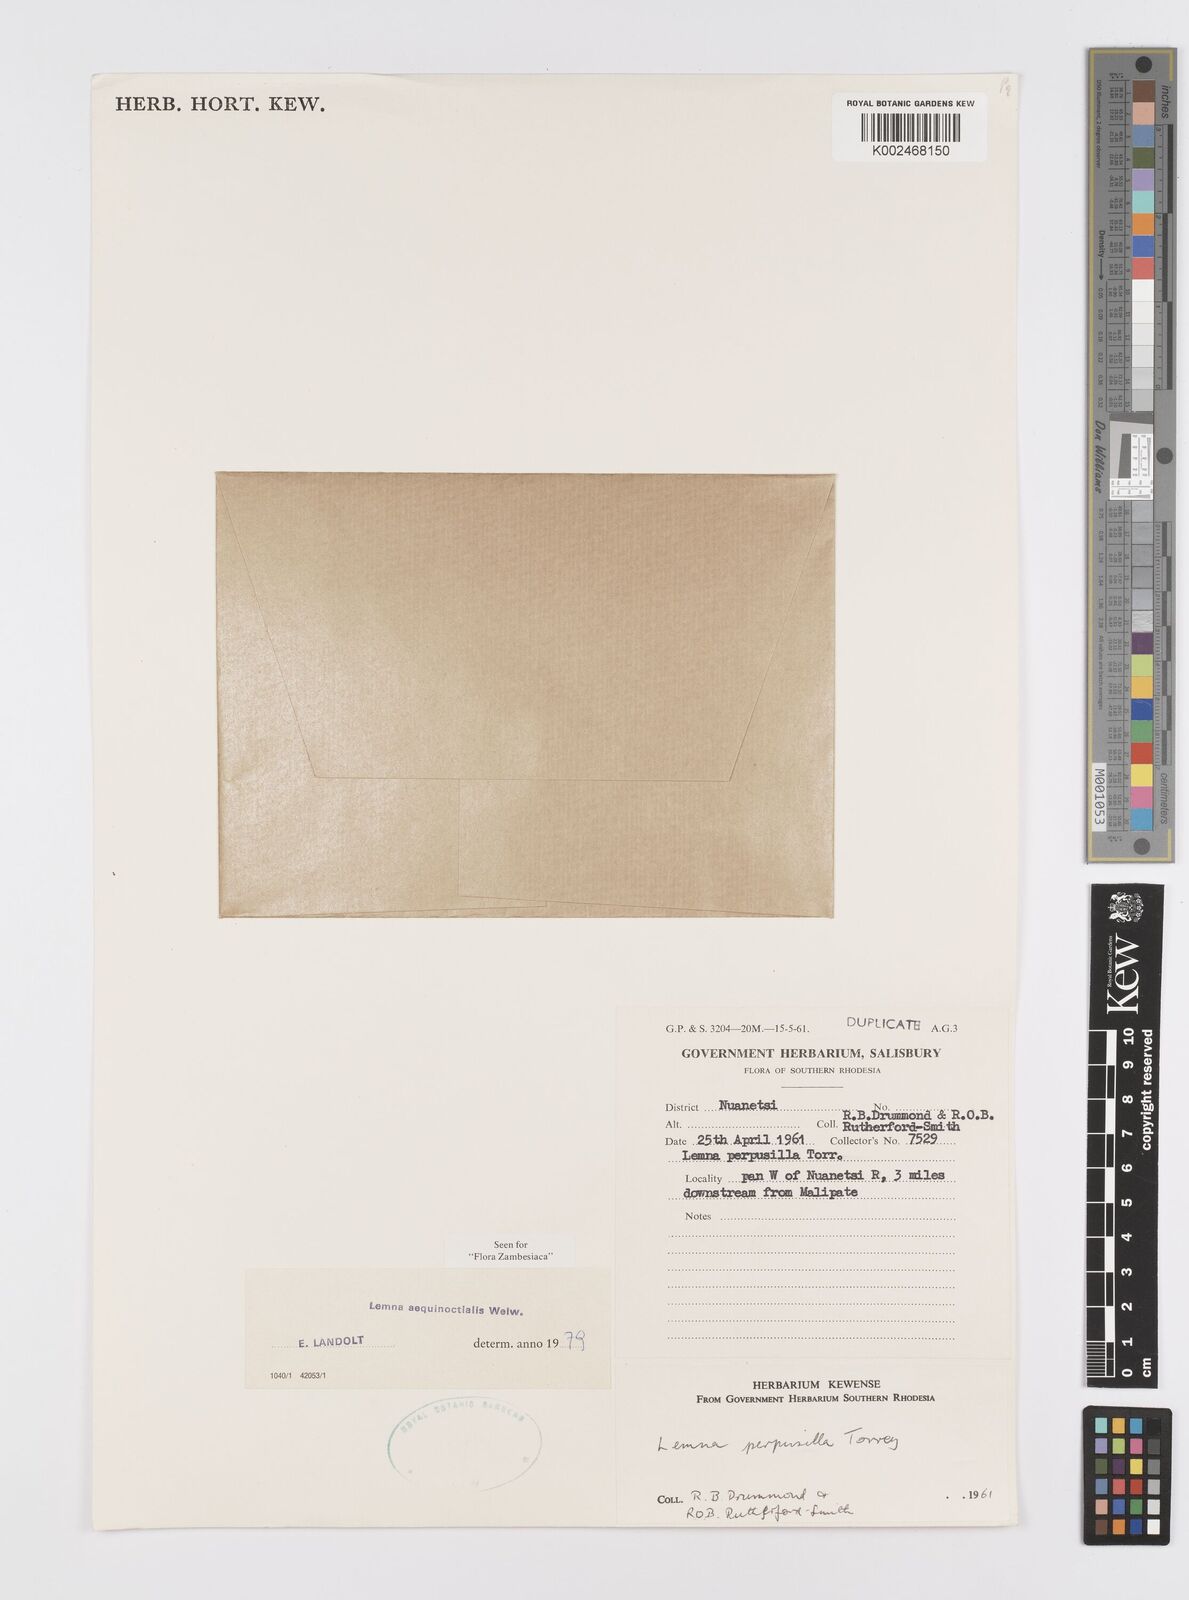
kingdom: Plantae
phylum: Tracheophyta
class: Liliopsida
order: Alismatales
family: Araceae
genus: Lemna
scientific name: Lemna aequinoctialis
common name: Duckweed
